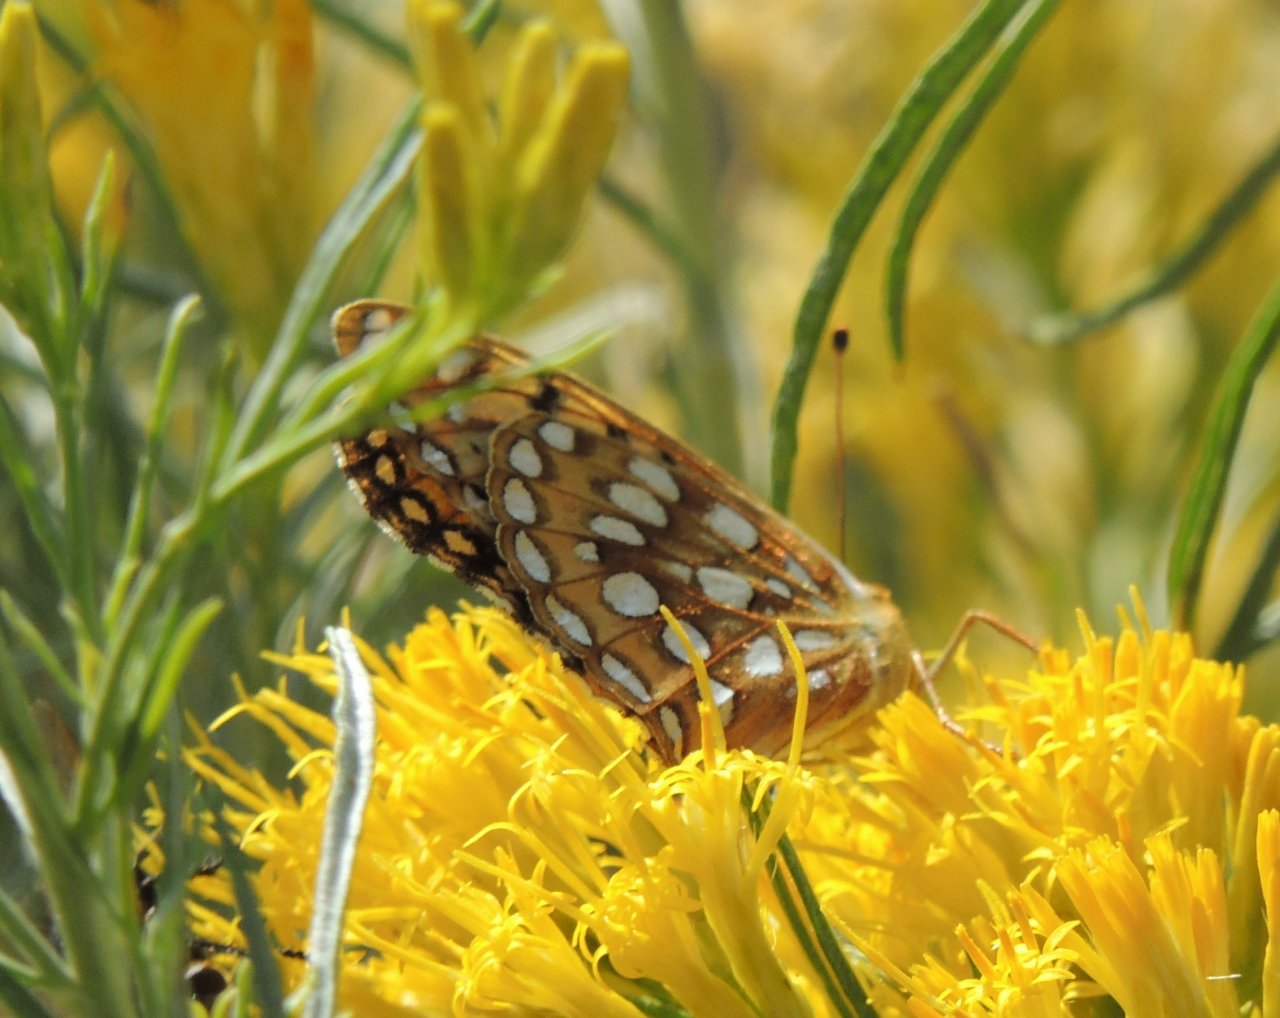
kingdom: Animalia
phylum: Arthropoda
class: Insecta
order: Lepidoptera
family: Nymphalidae
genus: Speyeria
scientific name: Speyeria mormonia
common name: Mormon Fritillary
